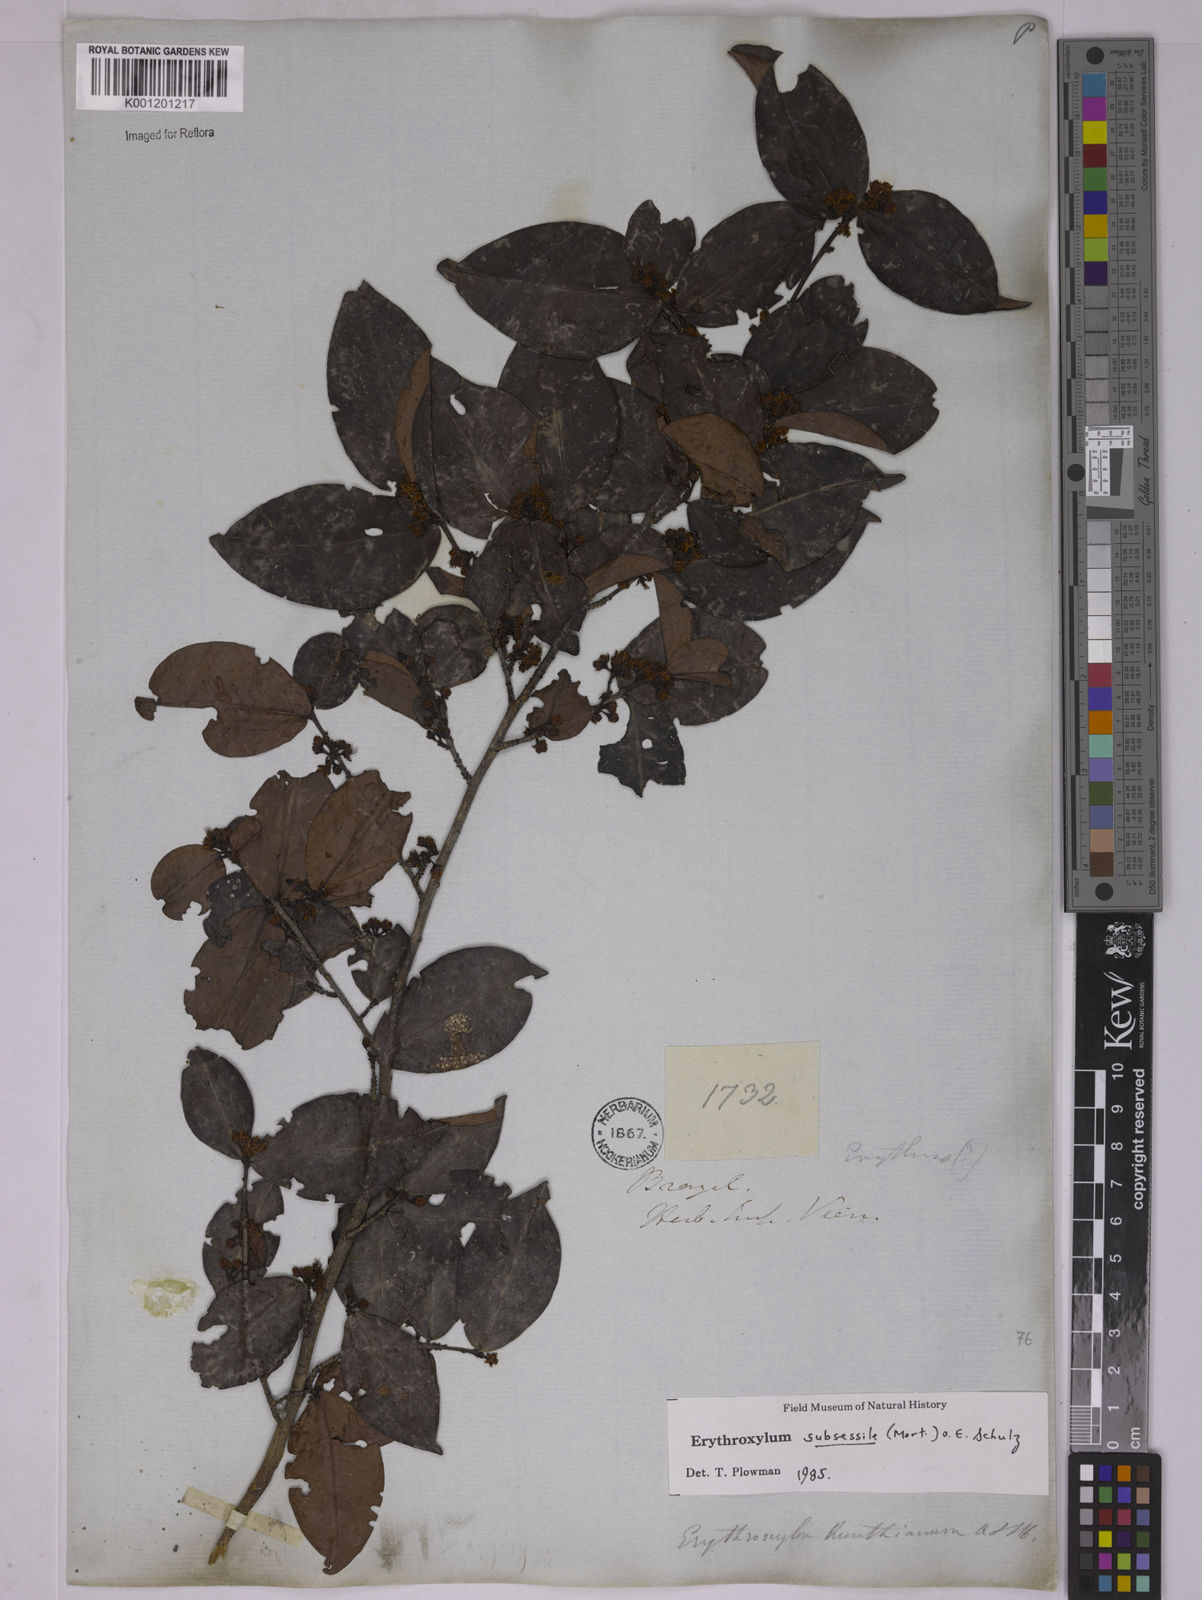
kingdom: Plantae
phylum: Tracheophyta
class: Magnoliopsida
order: Malpighiales
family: Erythroxylaceae
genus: Erythroxylum
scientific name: Erythroxylum macrocalyx
